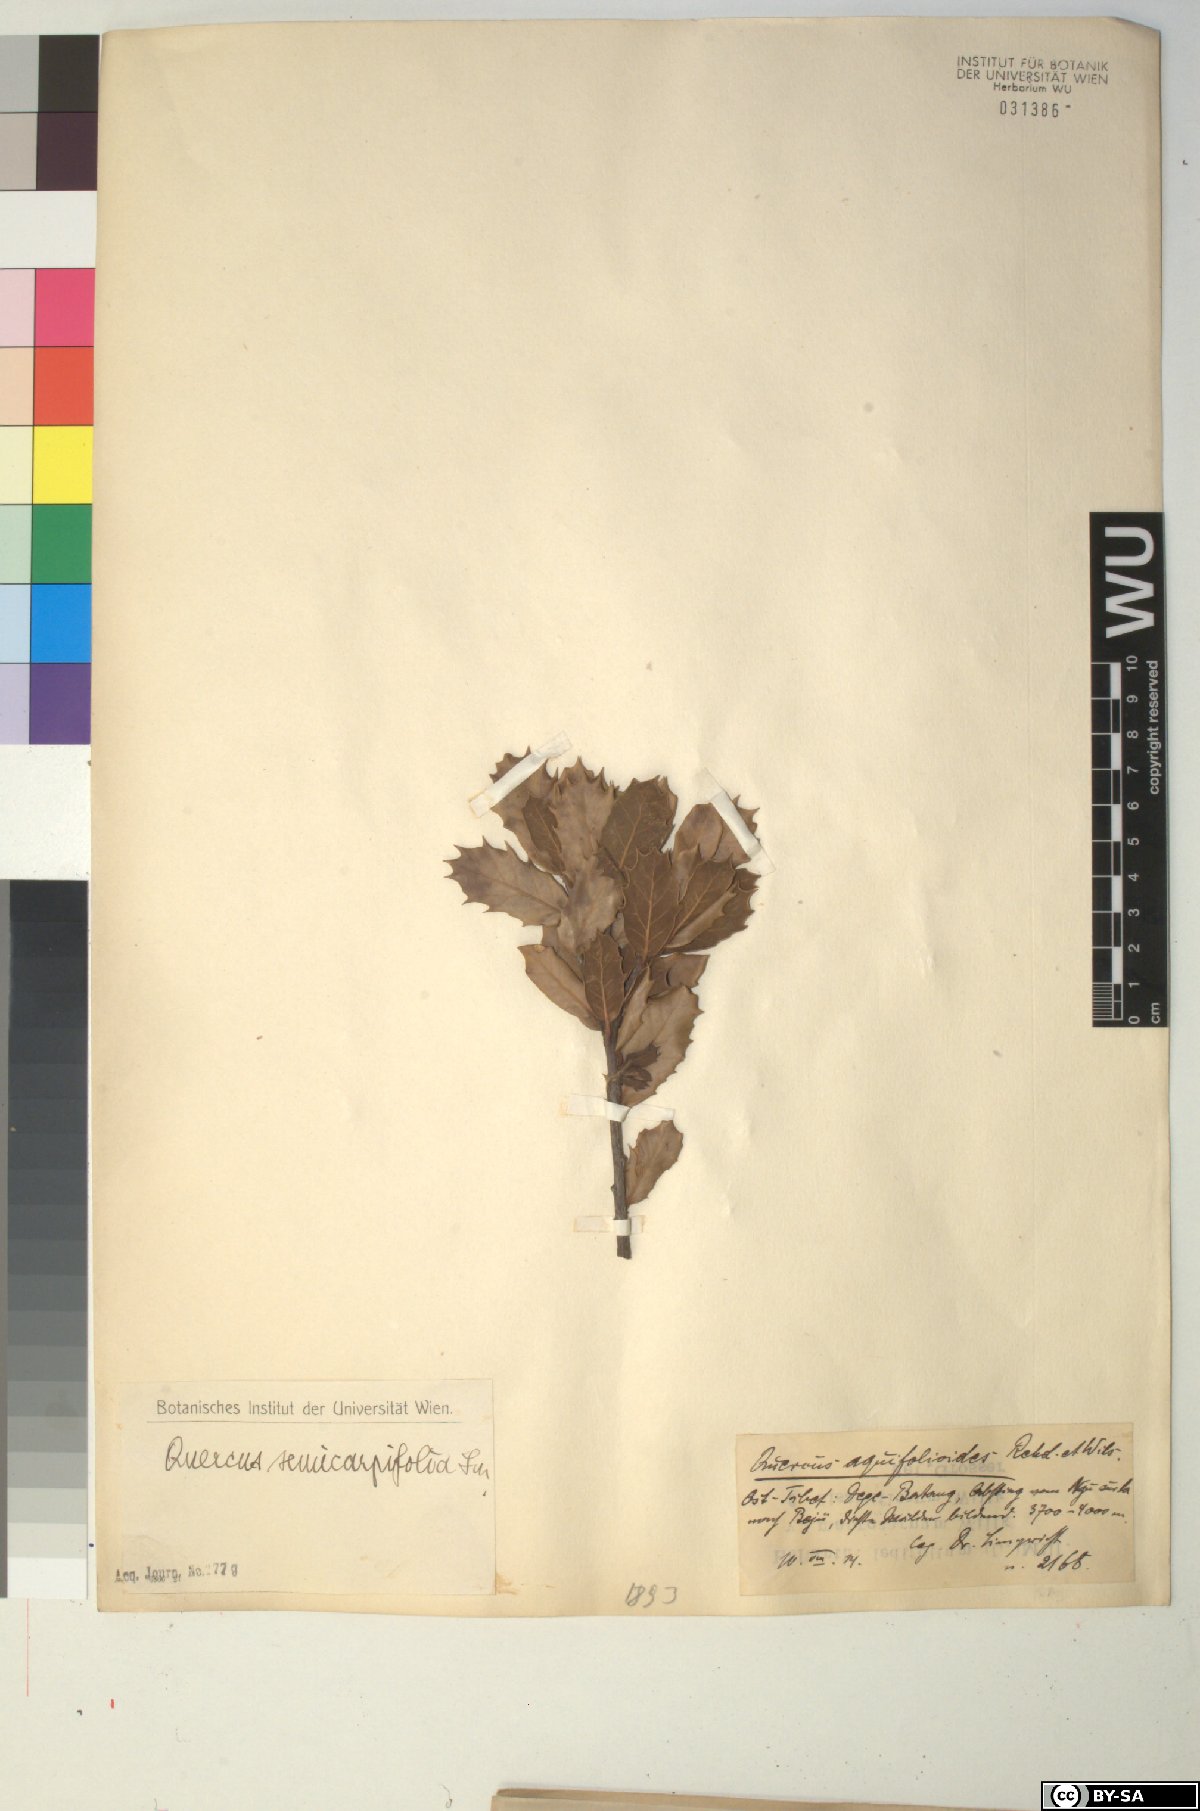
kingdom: Plantae
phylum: Tracheophyta
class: Magnoliopsida
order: Fagales
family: Fagaceae
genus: Quercus
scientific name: Quercus semecarpifolia
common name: Brown oak
